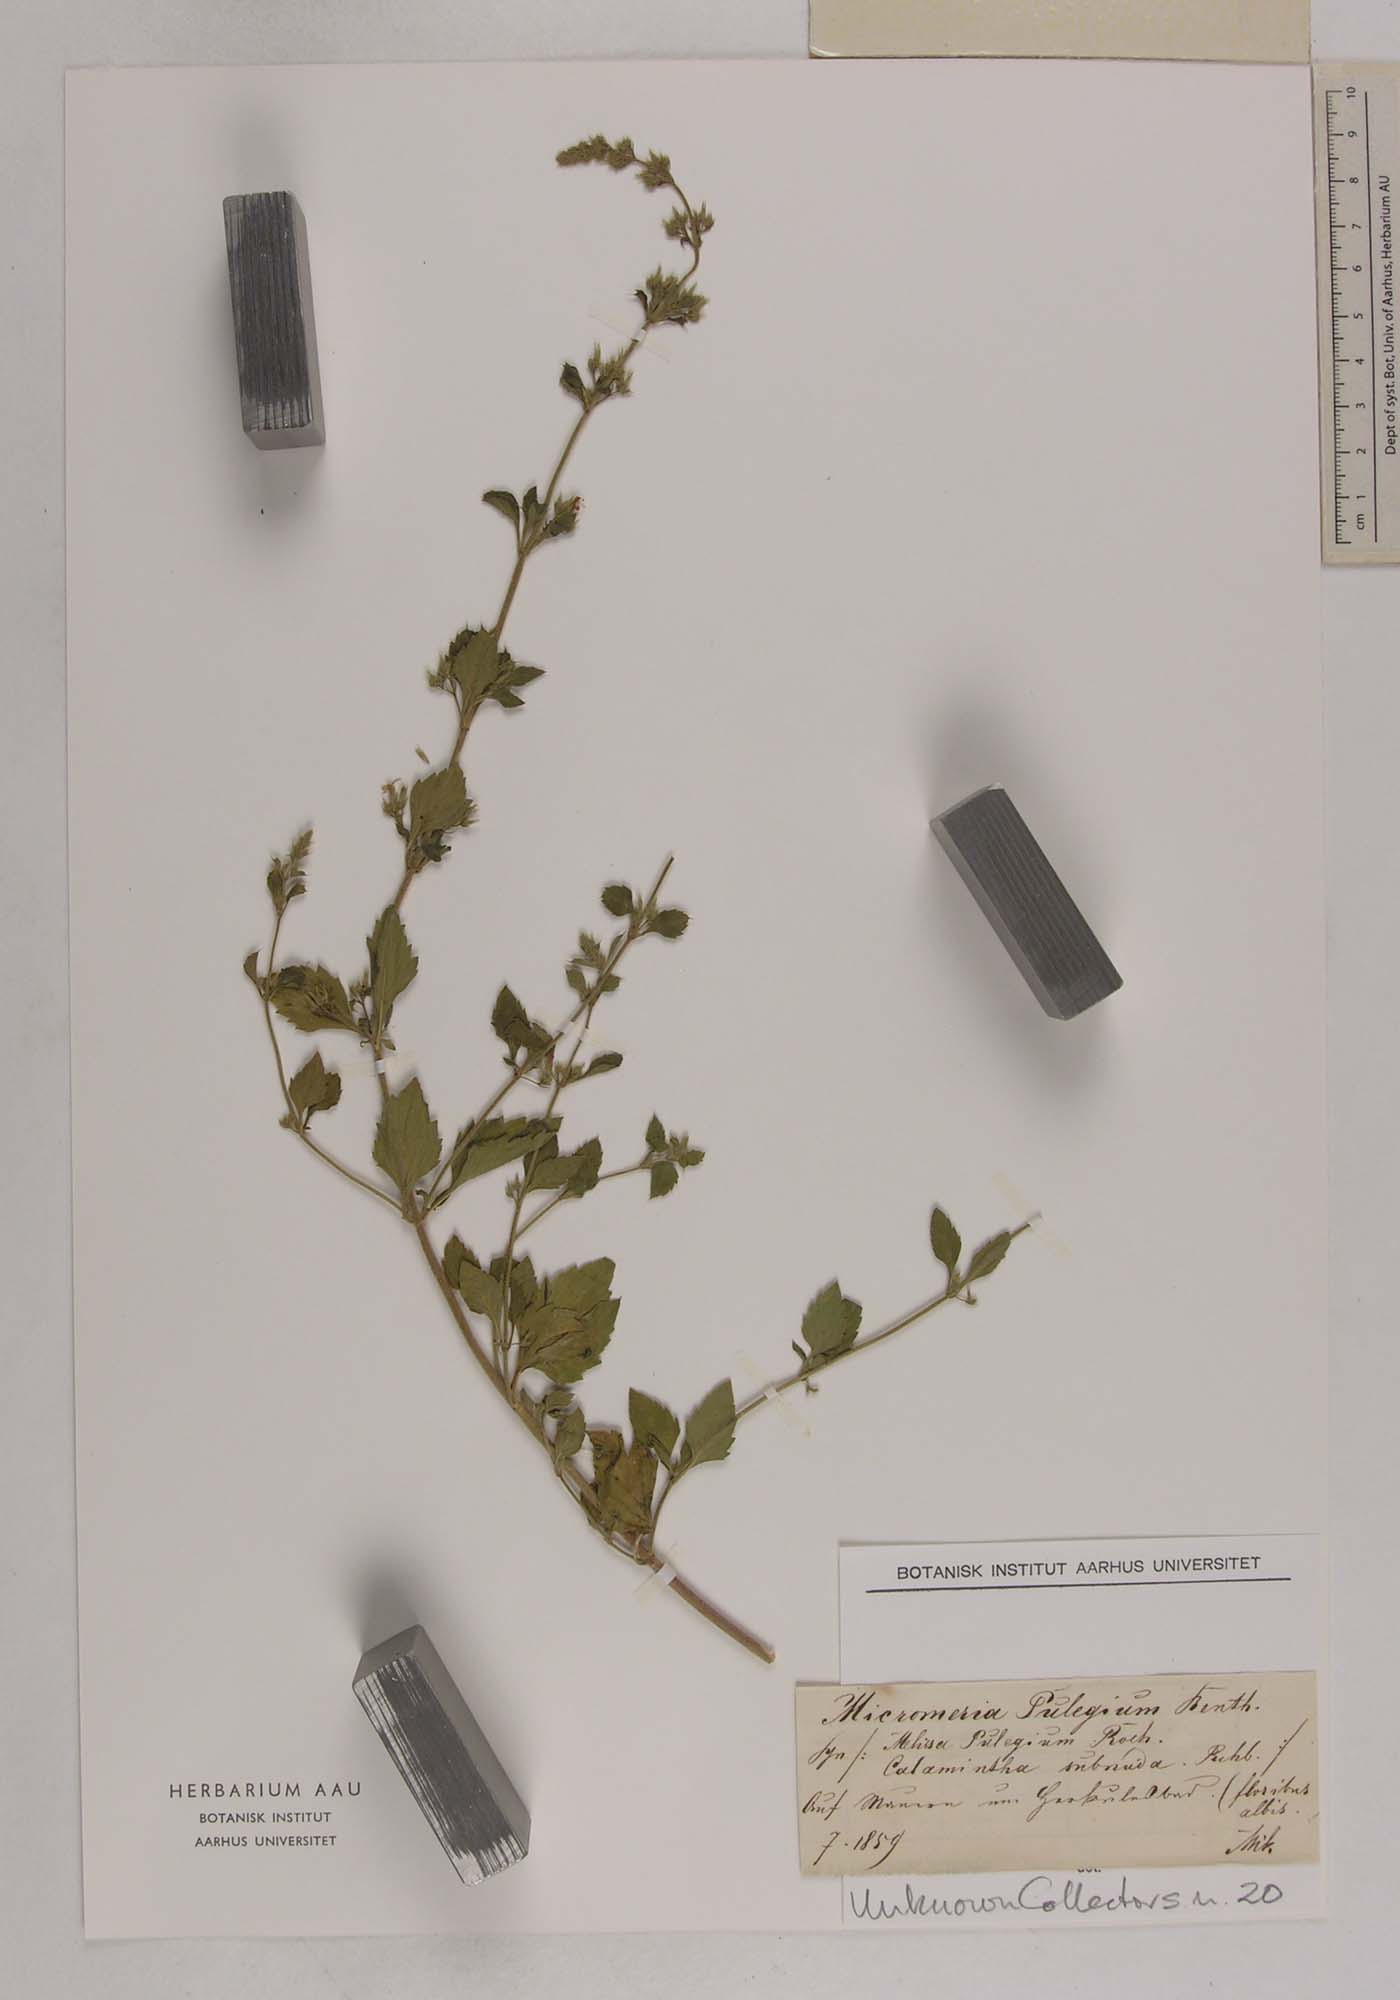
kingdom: Plantae
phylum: Tracheophyta
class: Magnoliopsida
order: Lamiales
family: Lamiaceae
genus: Clinopodium
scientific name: Clinopodium pulegium
